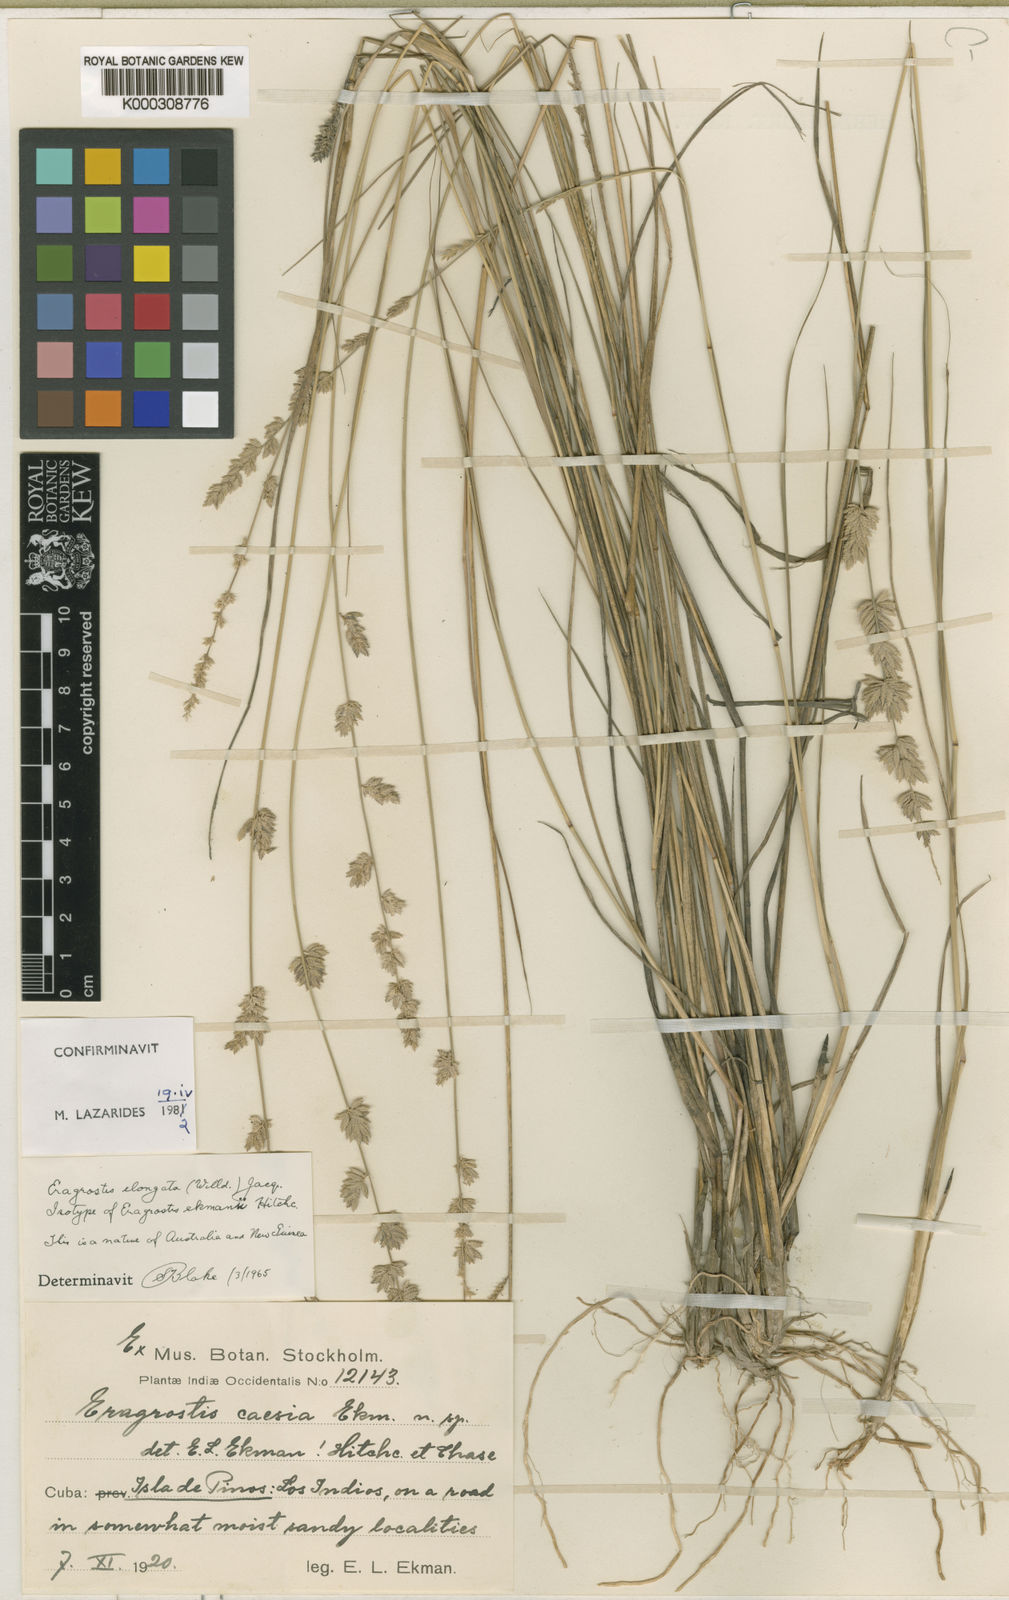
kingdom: Plantae
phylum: Tracheophyta
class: Liliopsida
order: Poales
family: Poaceae
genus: Eragrostis
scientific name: Eragrostis elongata
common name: Long lovegrass
